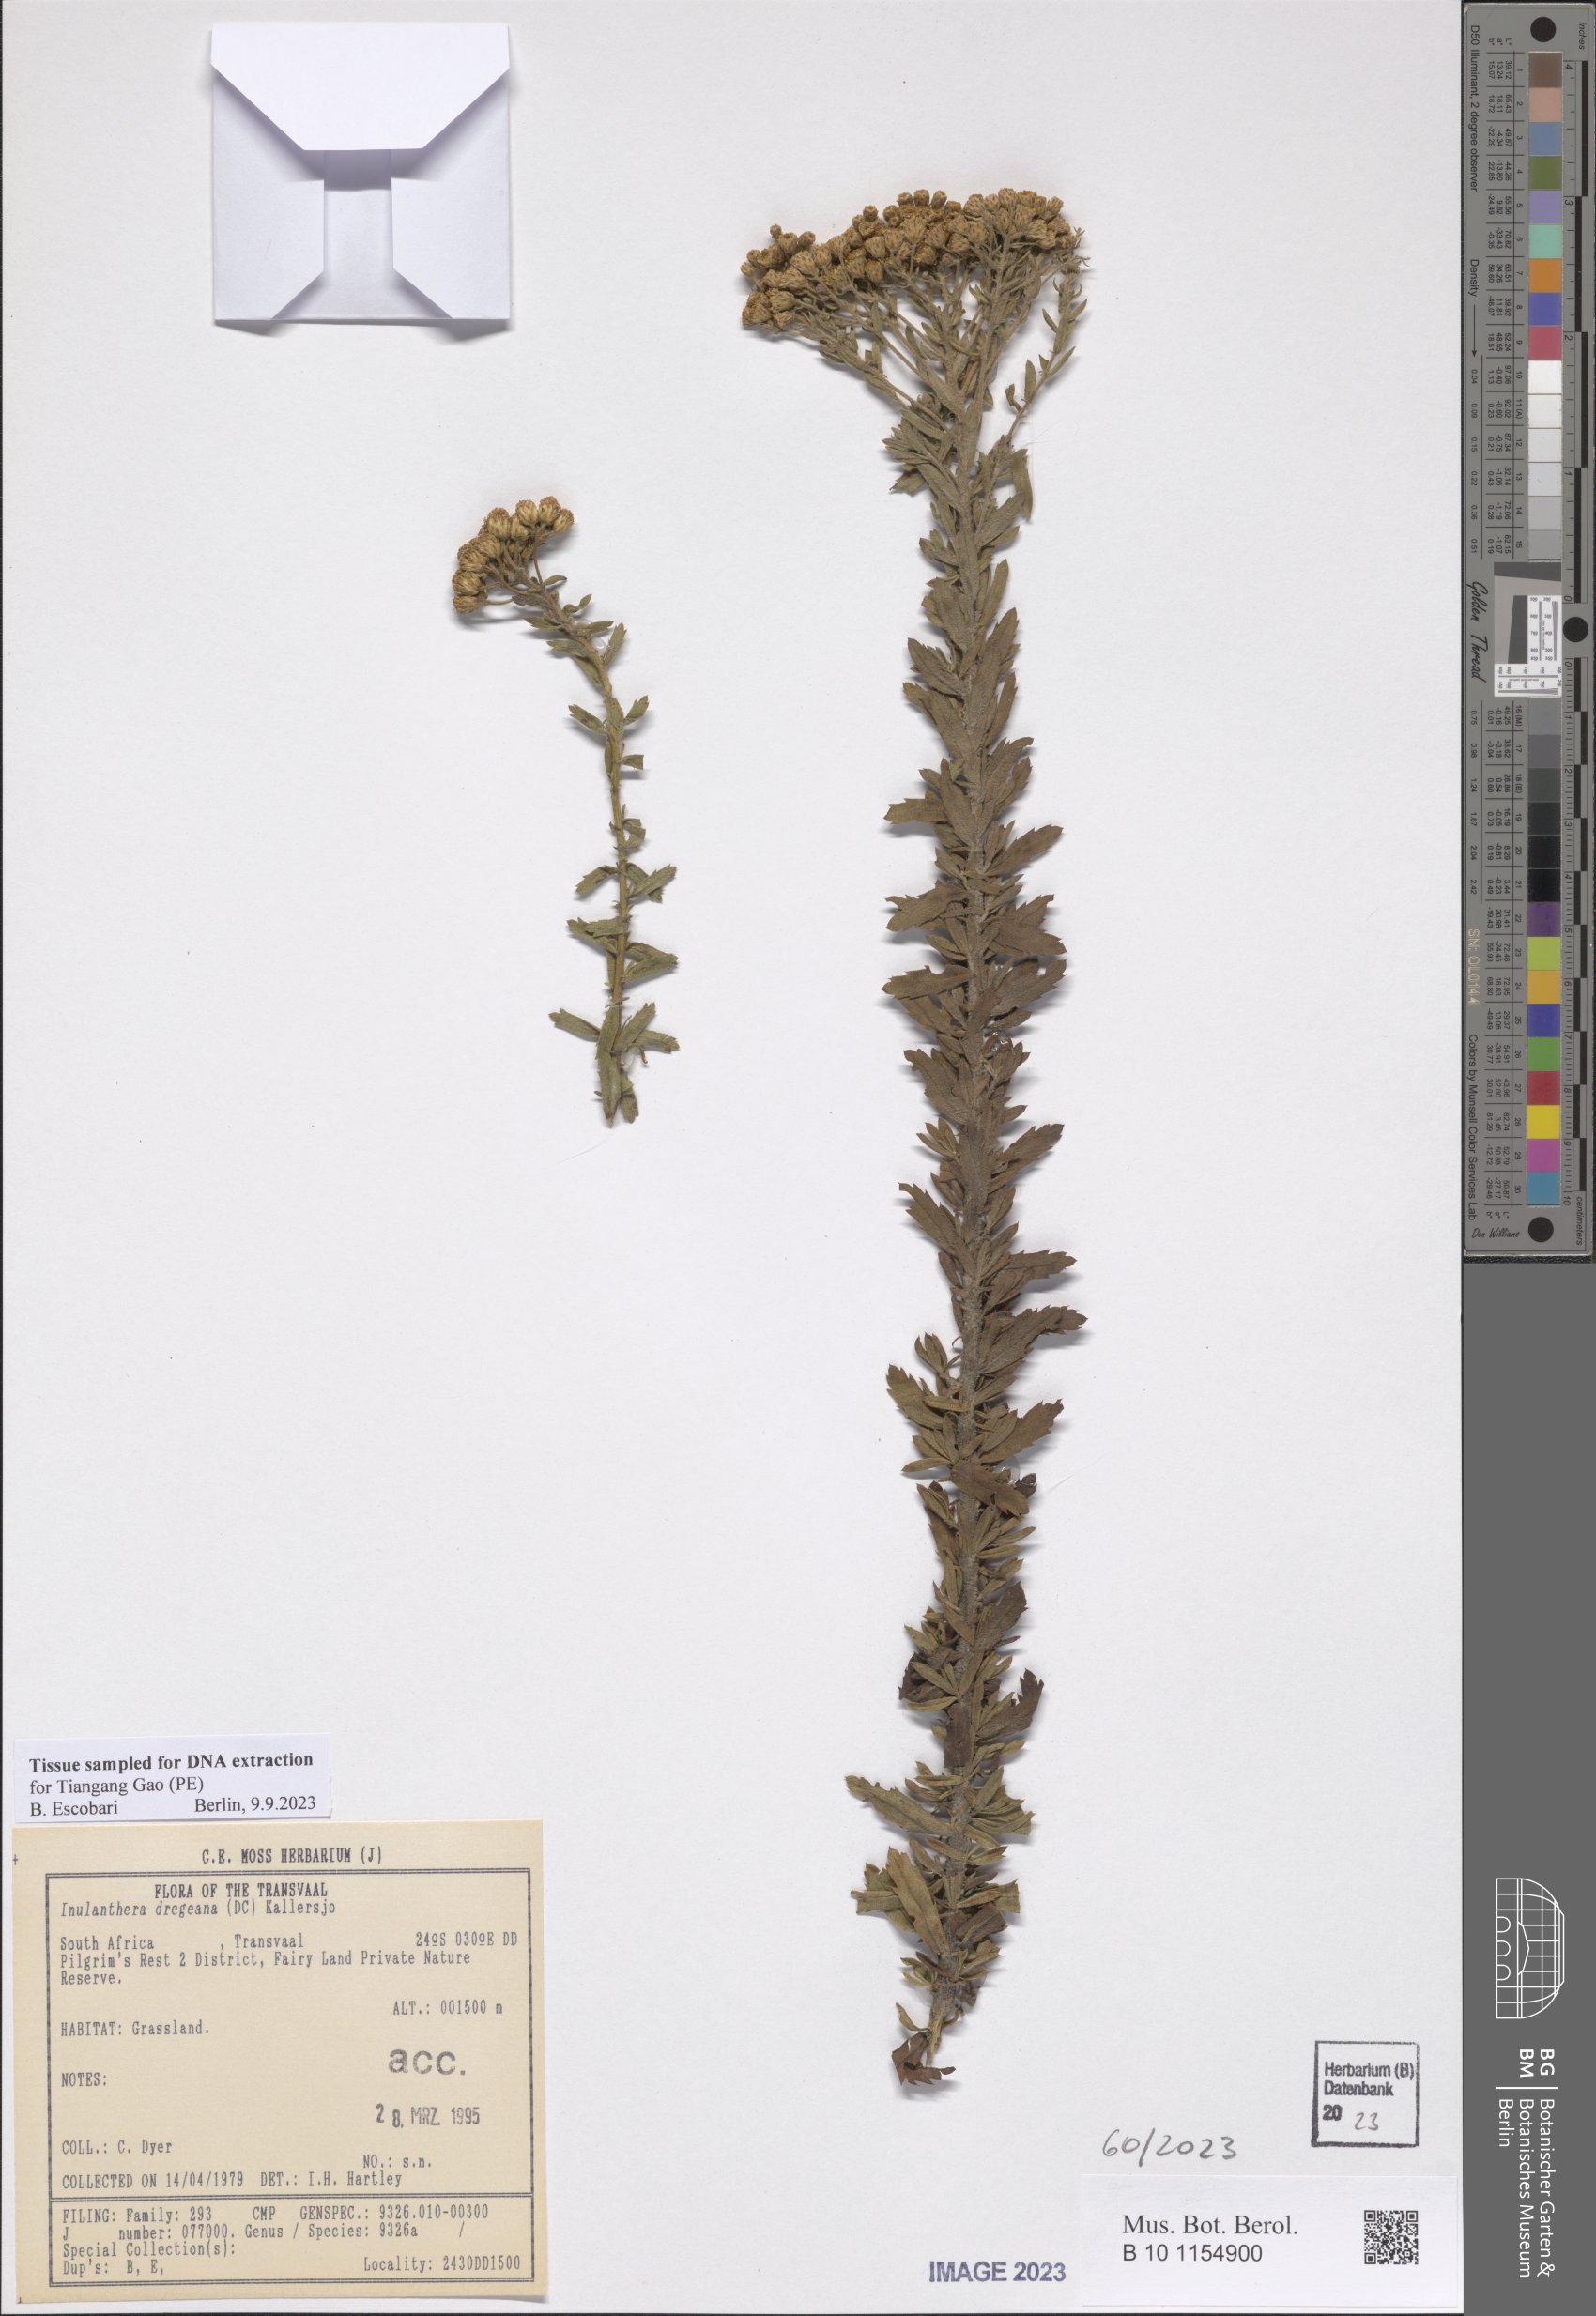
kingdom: Plantae
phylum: Tracheophyta
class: Magnoliopsida
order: Asterales
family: Asteraceae
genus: Inulanthera
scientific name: Inulanthera dregeana
